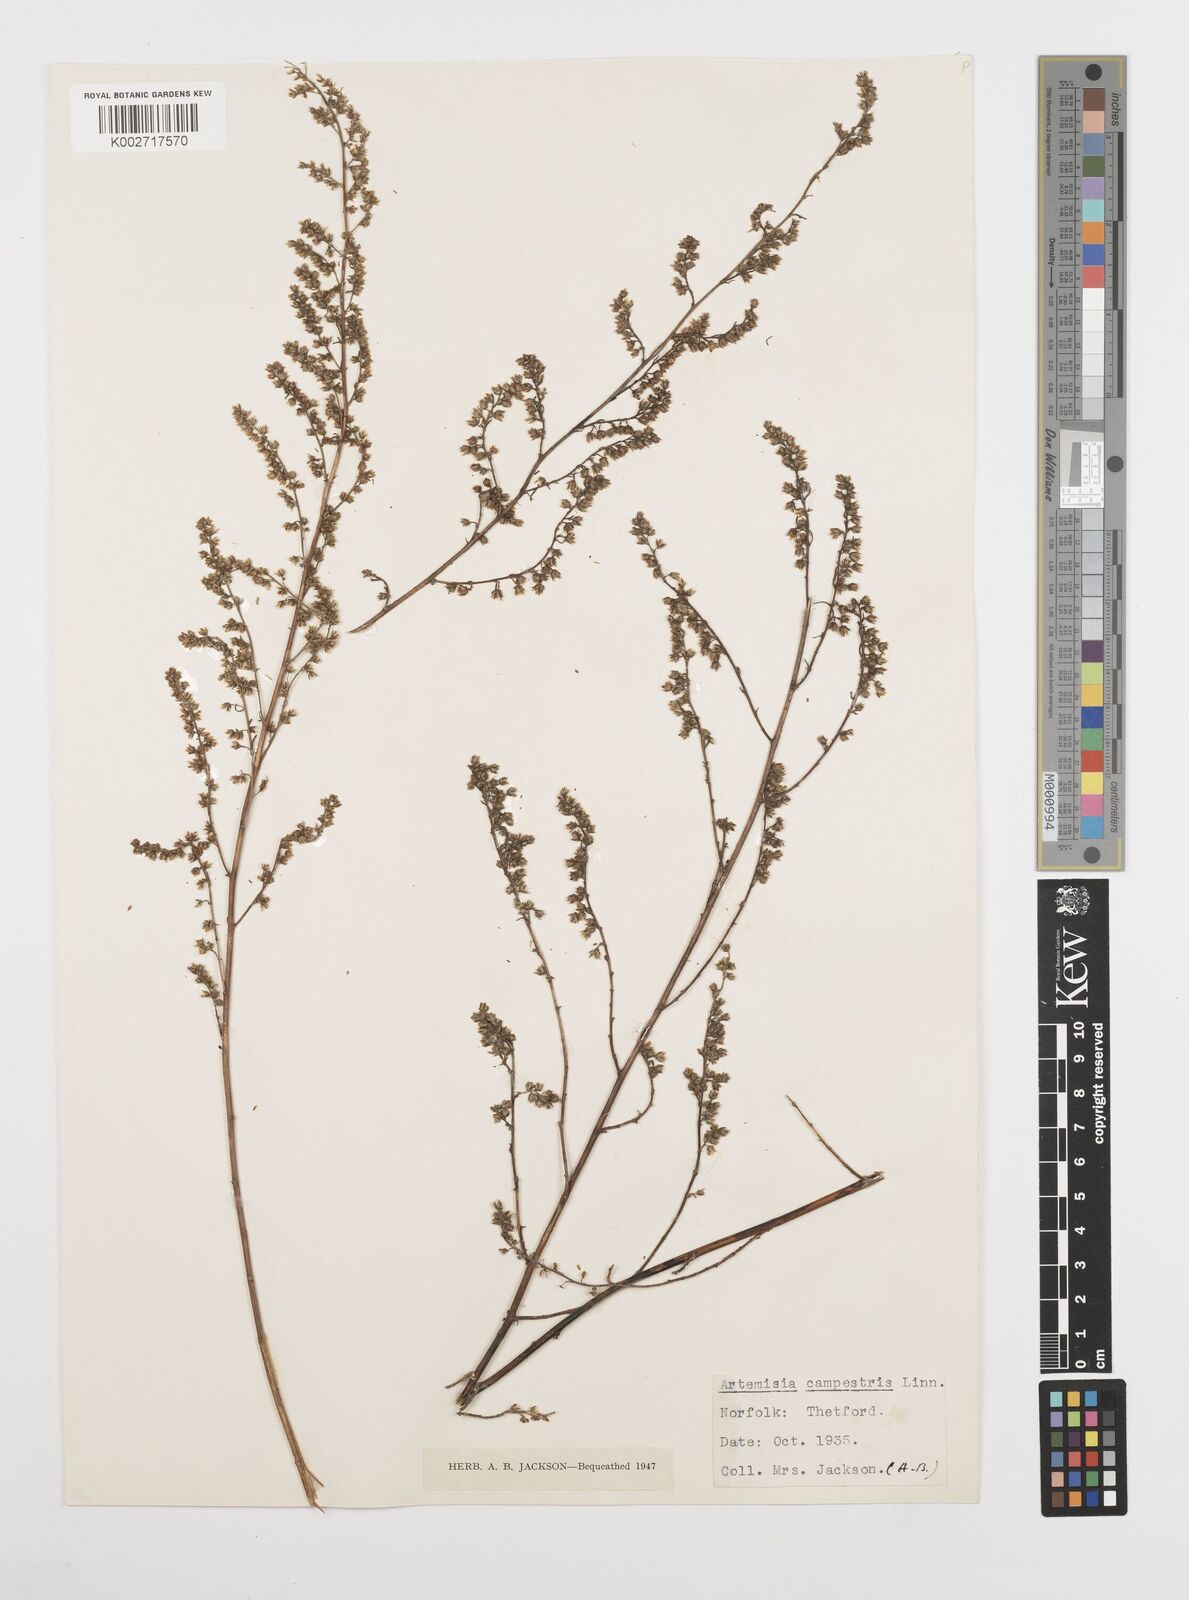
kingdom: Plantae
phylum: Tracheophyta
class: Magnoliopsida
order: Asterales
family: Asteraceae
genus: Artemisia
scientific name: Artemisia campestris
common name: Field wormwood
